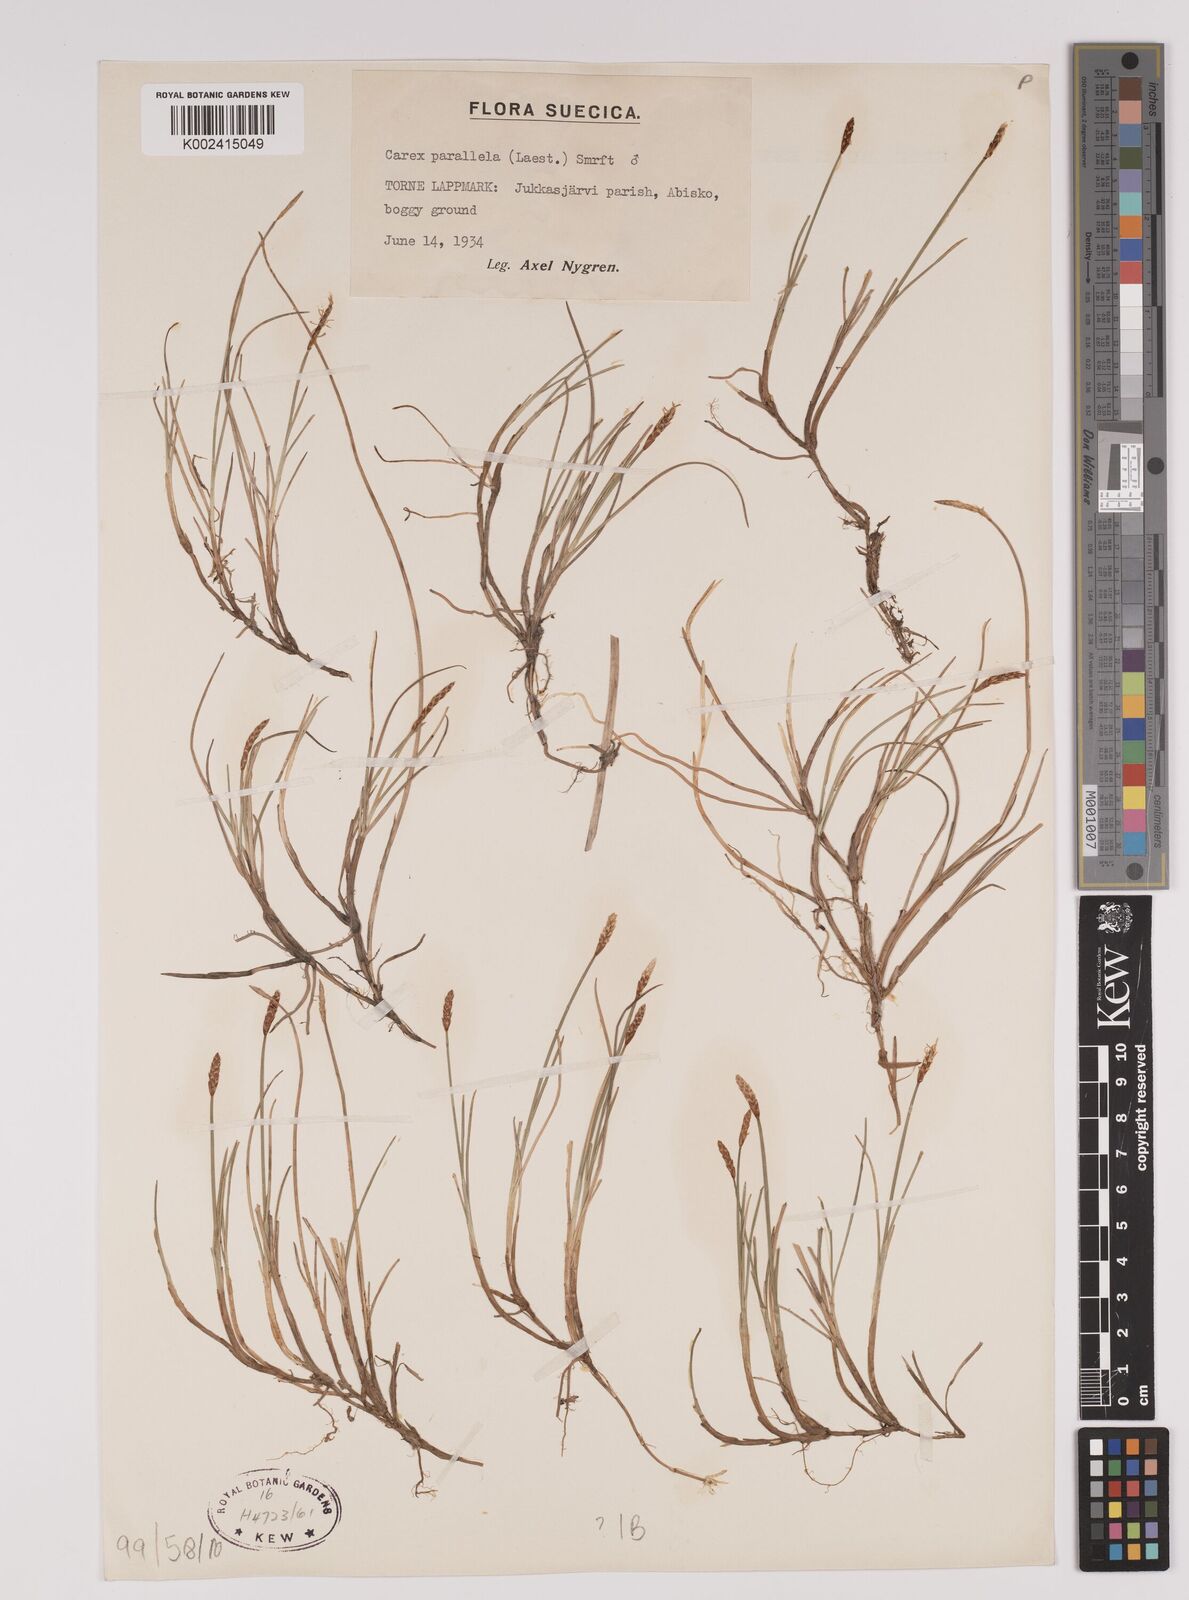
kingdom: Plantae
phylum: Tracheophyta
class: Liliopsida
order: Poales
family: Cyperaceae
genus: Carex
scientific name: Carex parallela
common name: Parallel sedge
